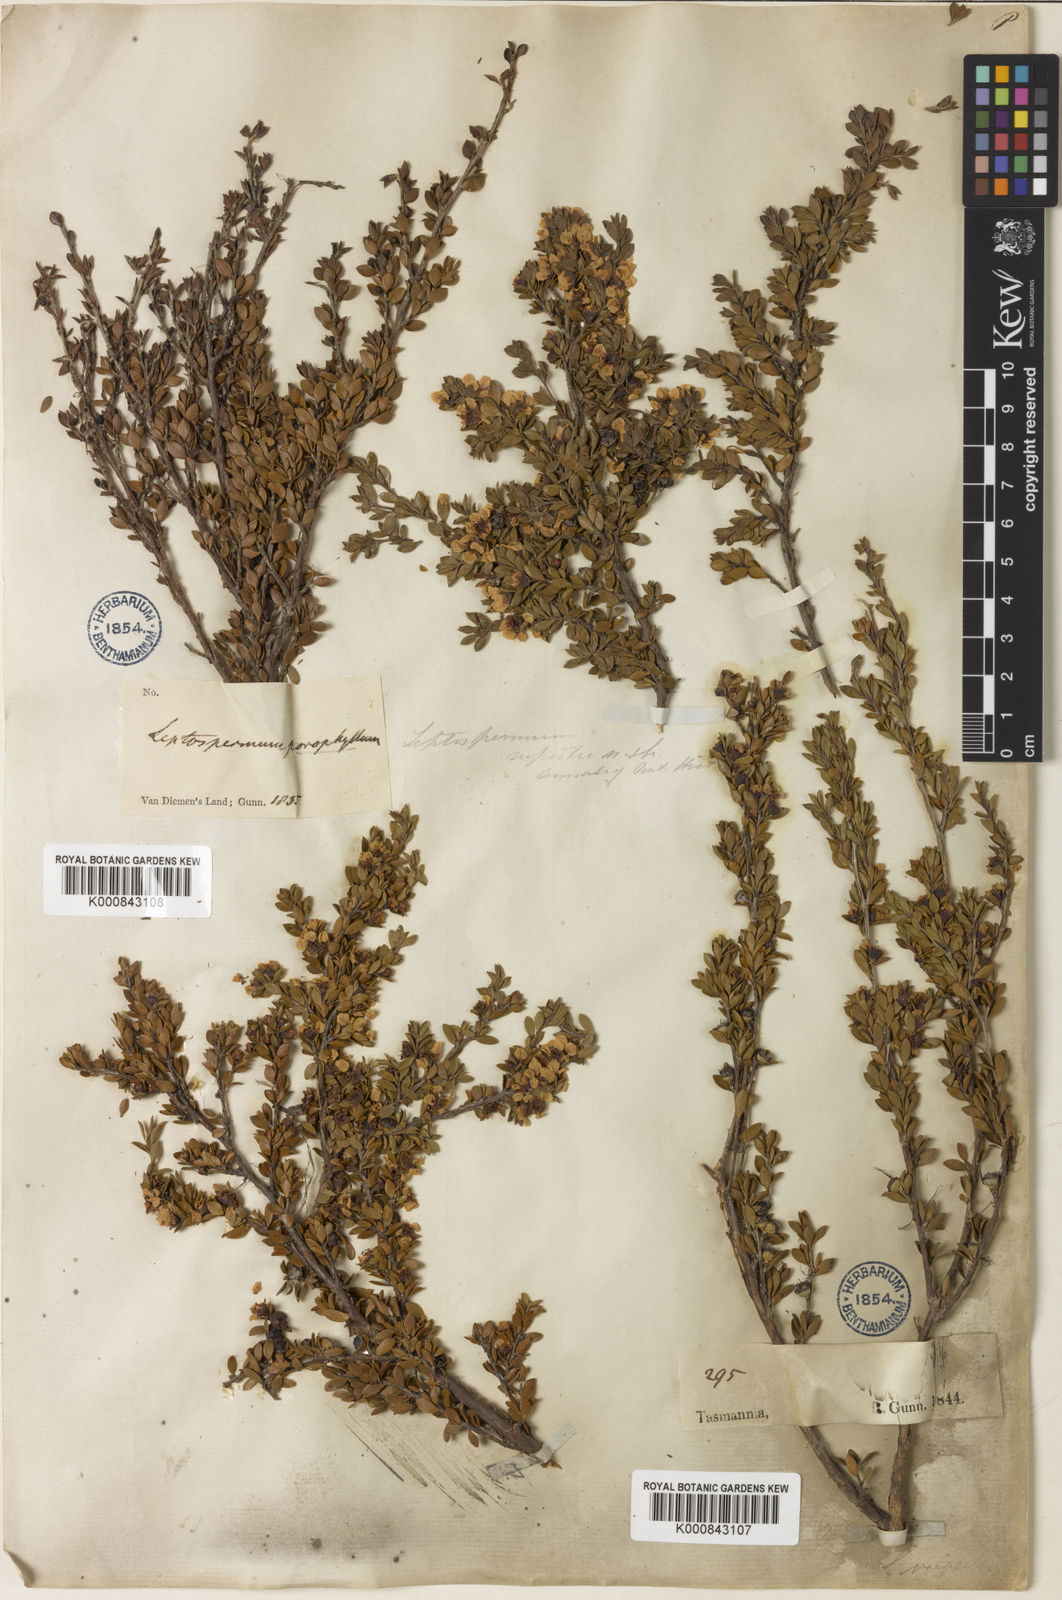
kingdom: Plantae
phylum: Tracheophyta
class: Magnoliopsida
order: Myrtales
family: Myrtaceae
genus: Leptospermum
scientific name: Leptospermum rupestre
